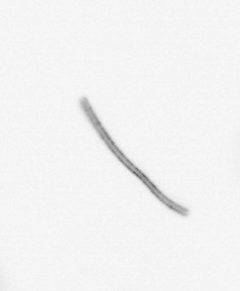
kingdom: Chromista
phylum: Ochrophyta
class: Bacillariophyceae
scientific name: Bacillariophyceae
